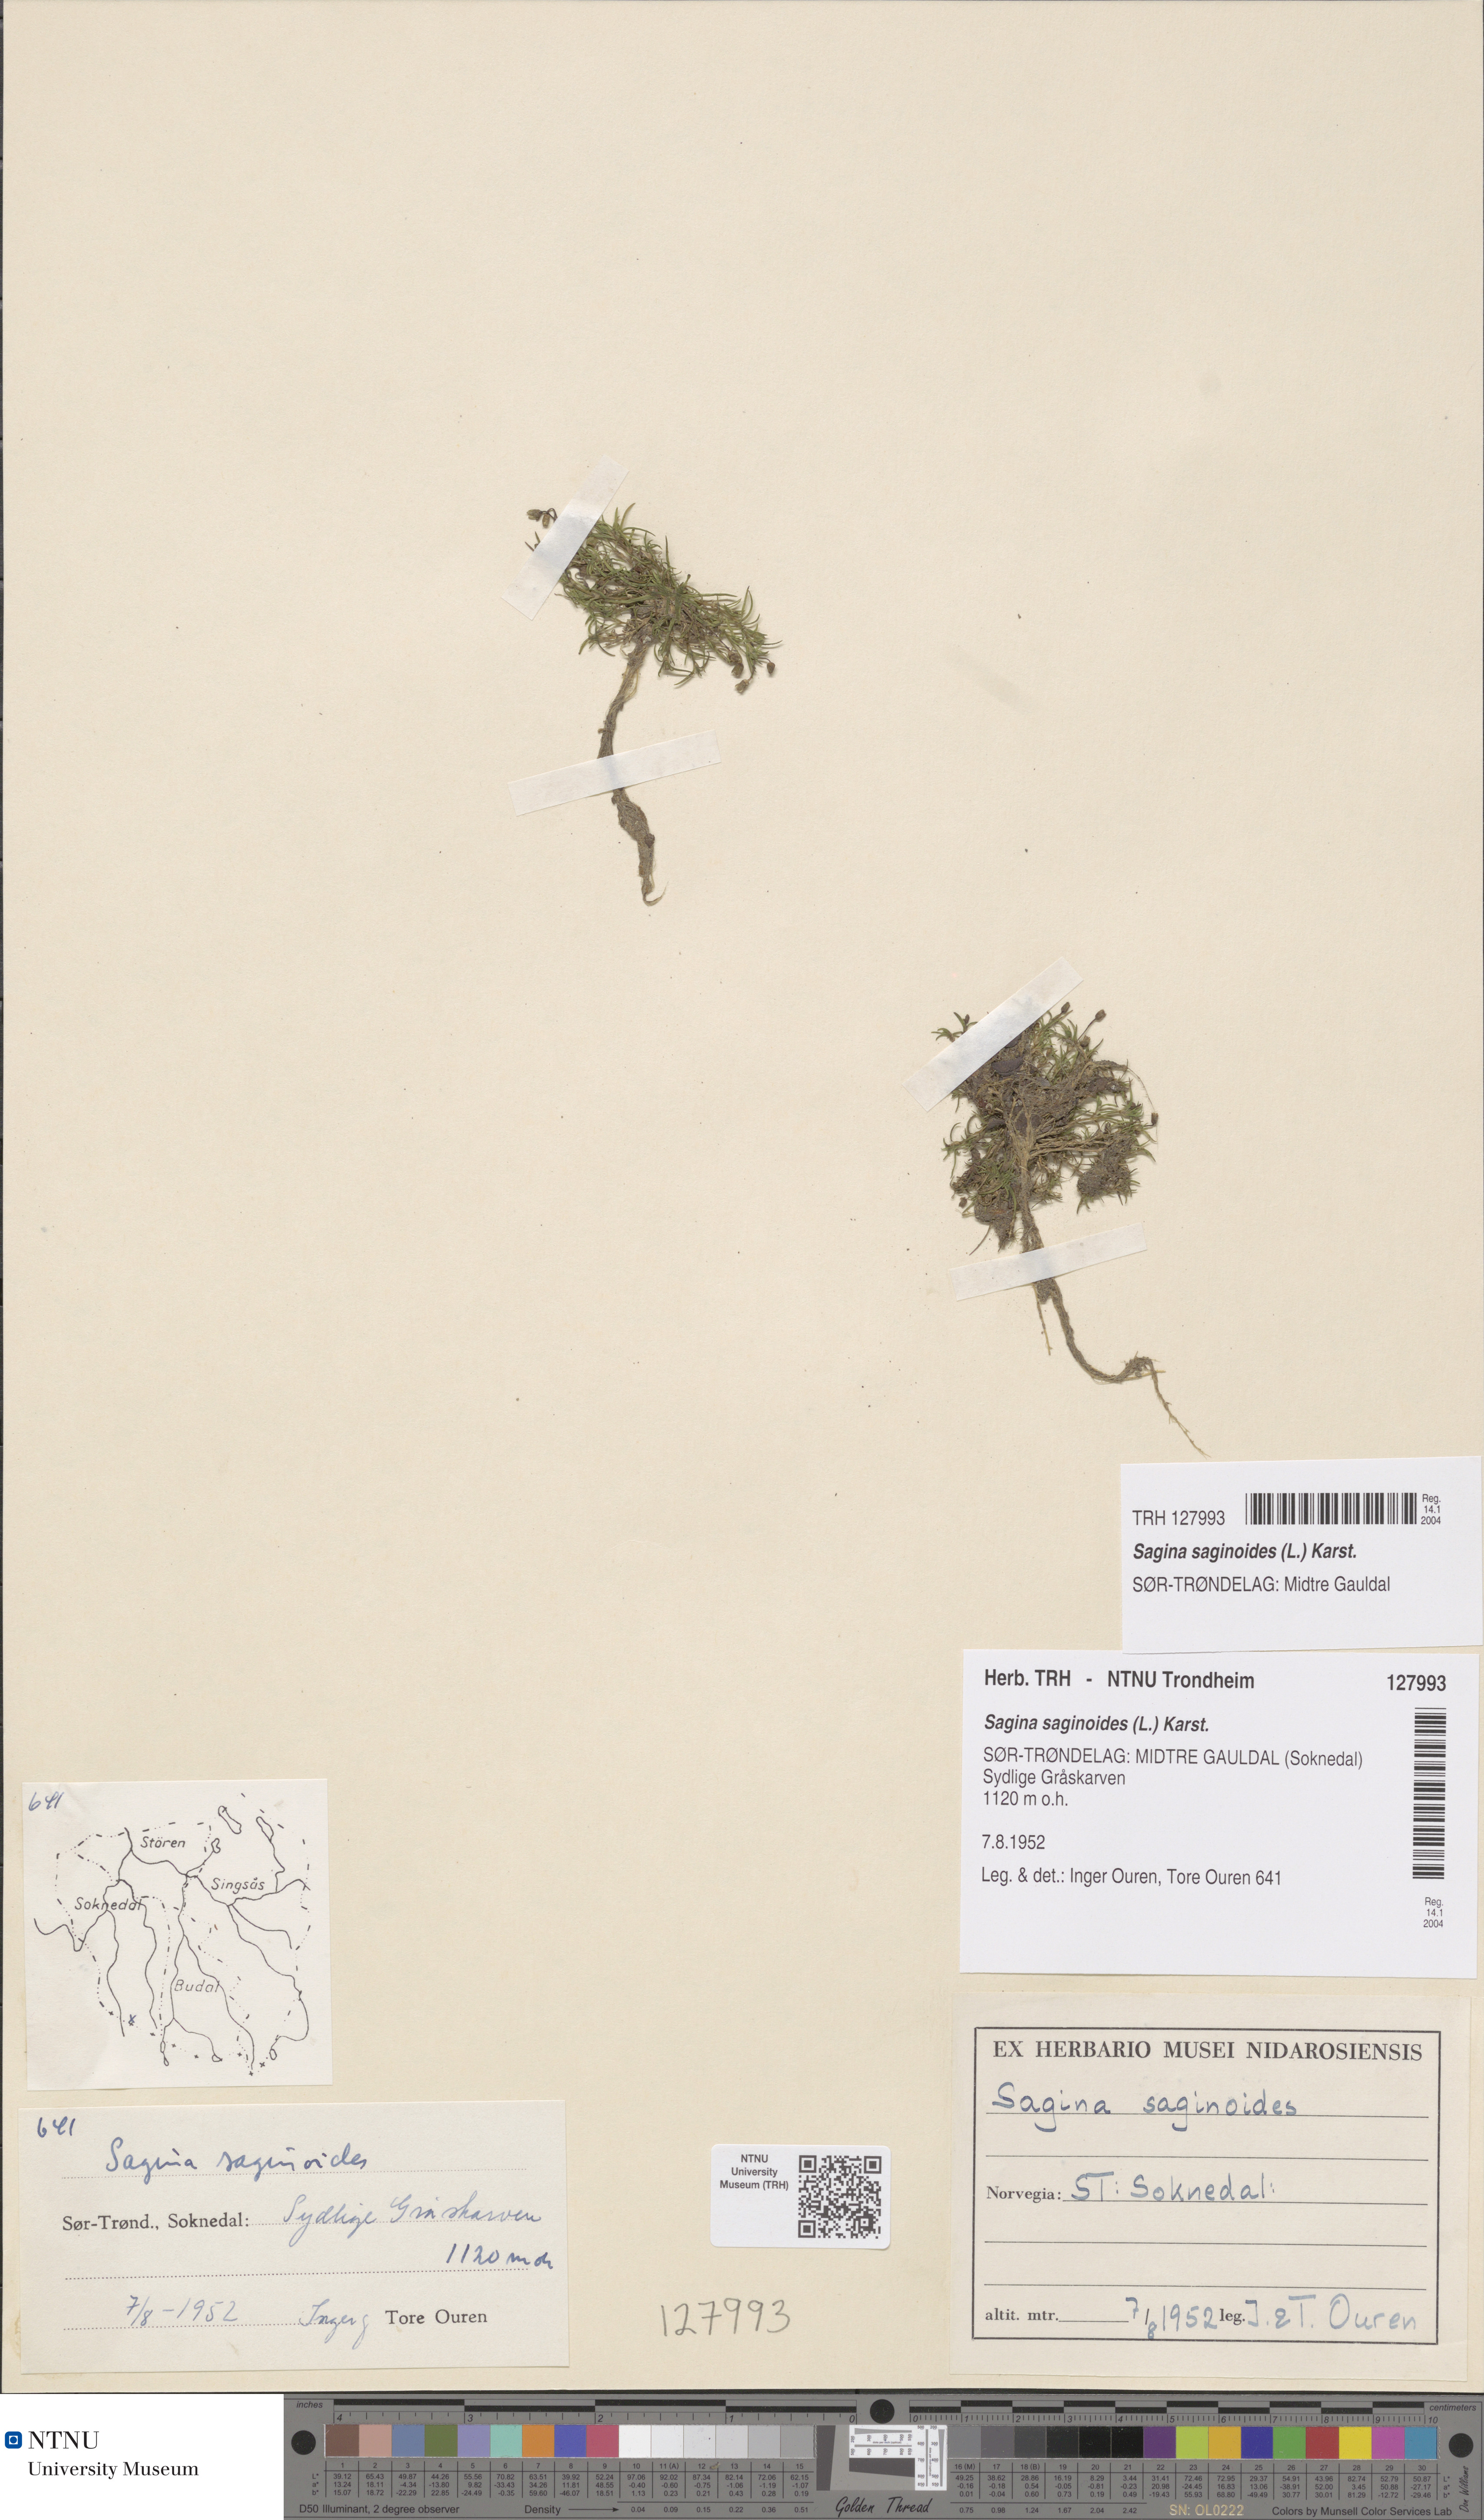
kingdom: Plantae
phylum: Tracheophyta
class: Magnoliopsida
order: Caryophyllales
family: Caryophyllaceae
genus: Sagina
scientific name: Sagina saginoides
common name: Alpine pearlwort
